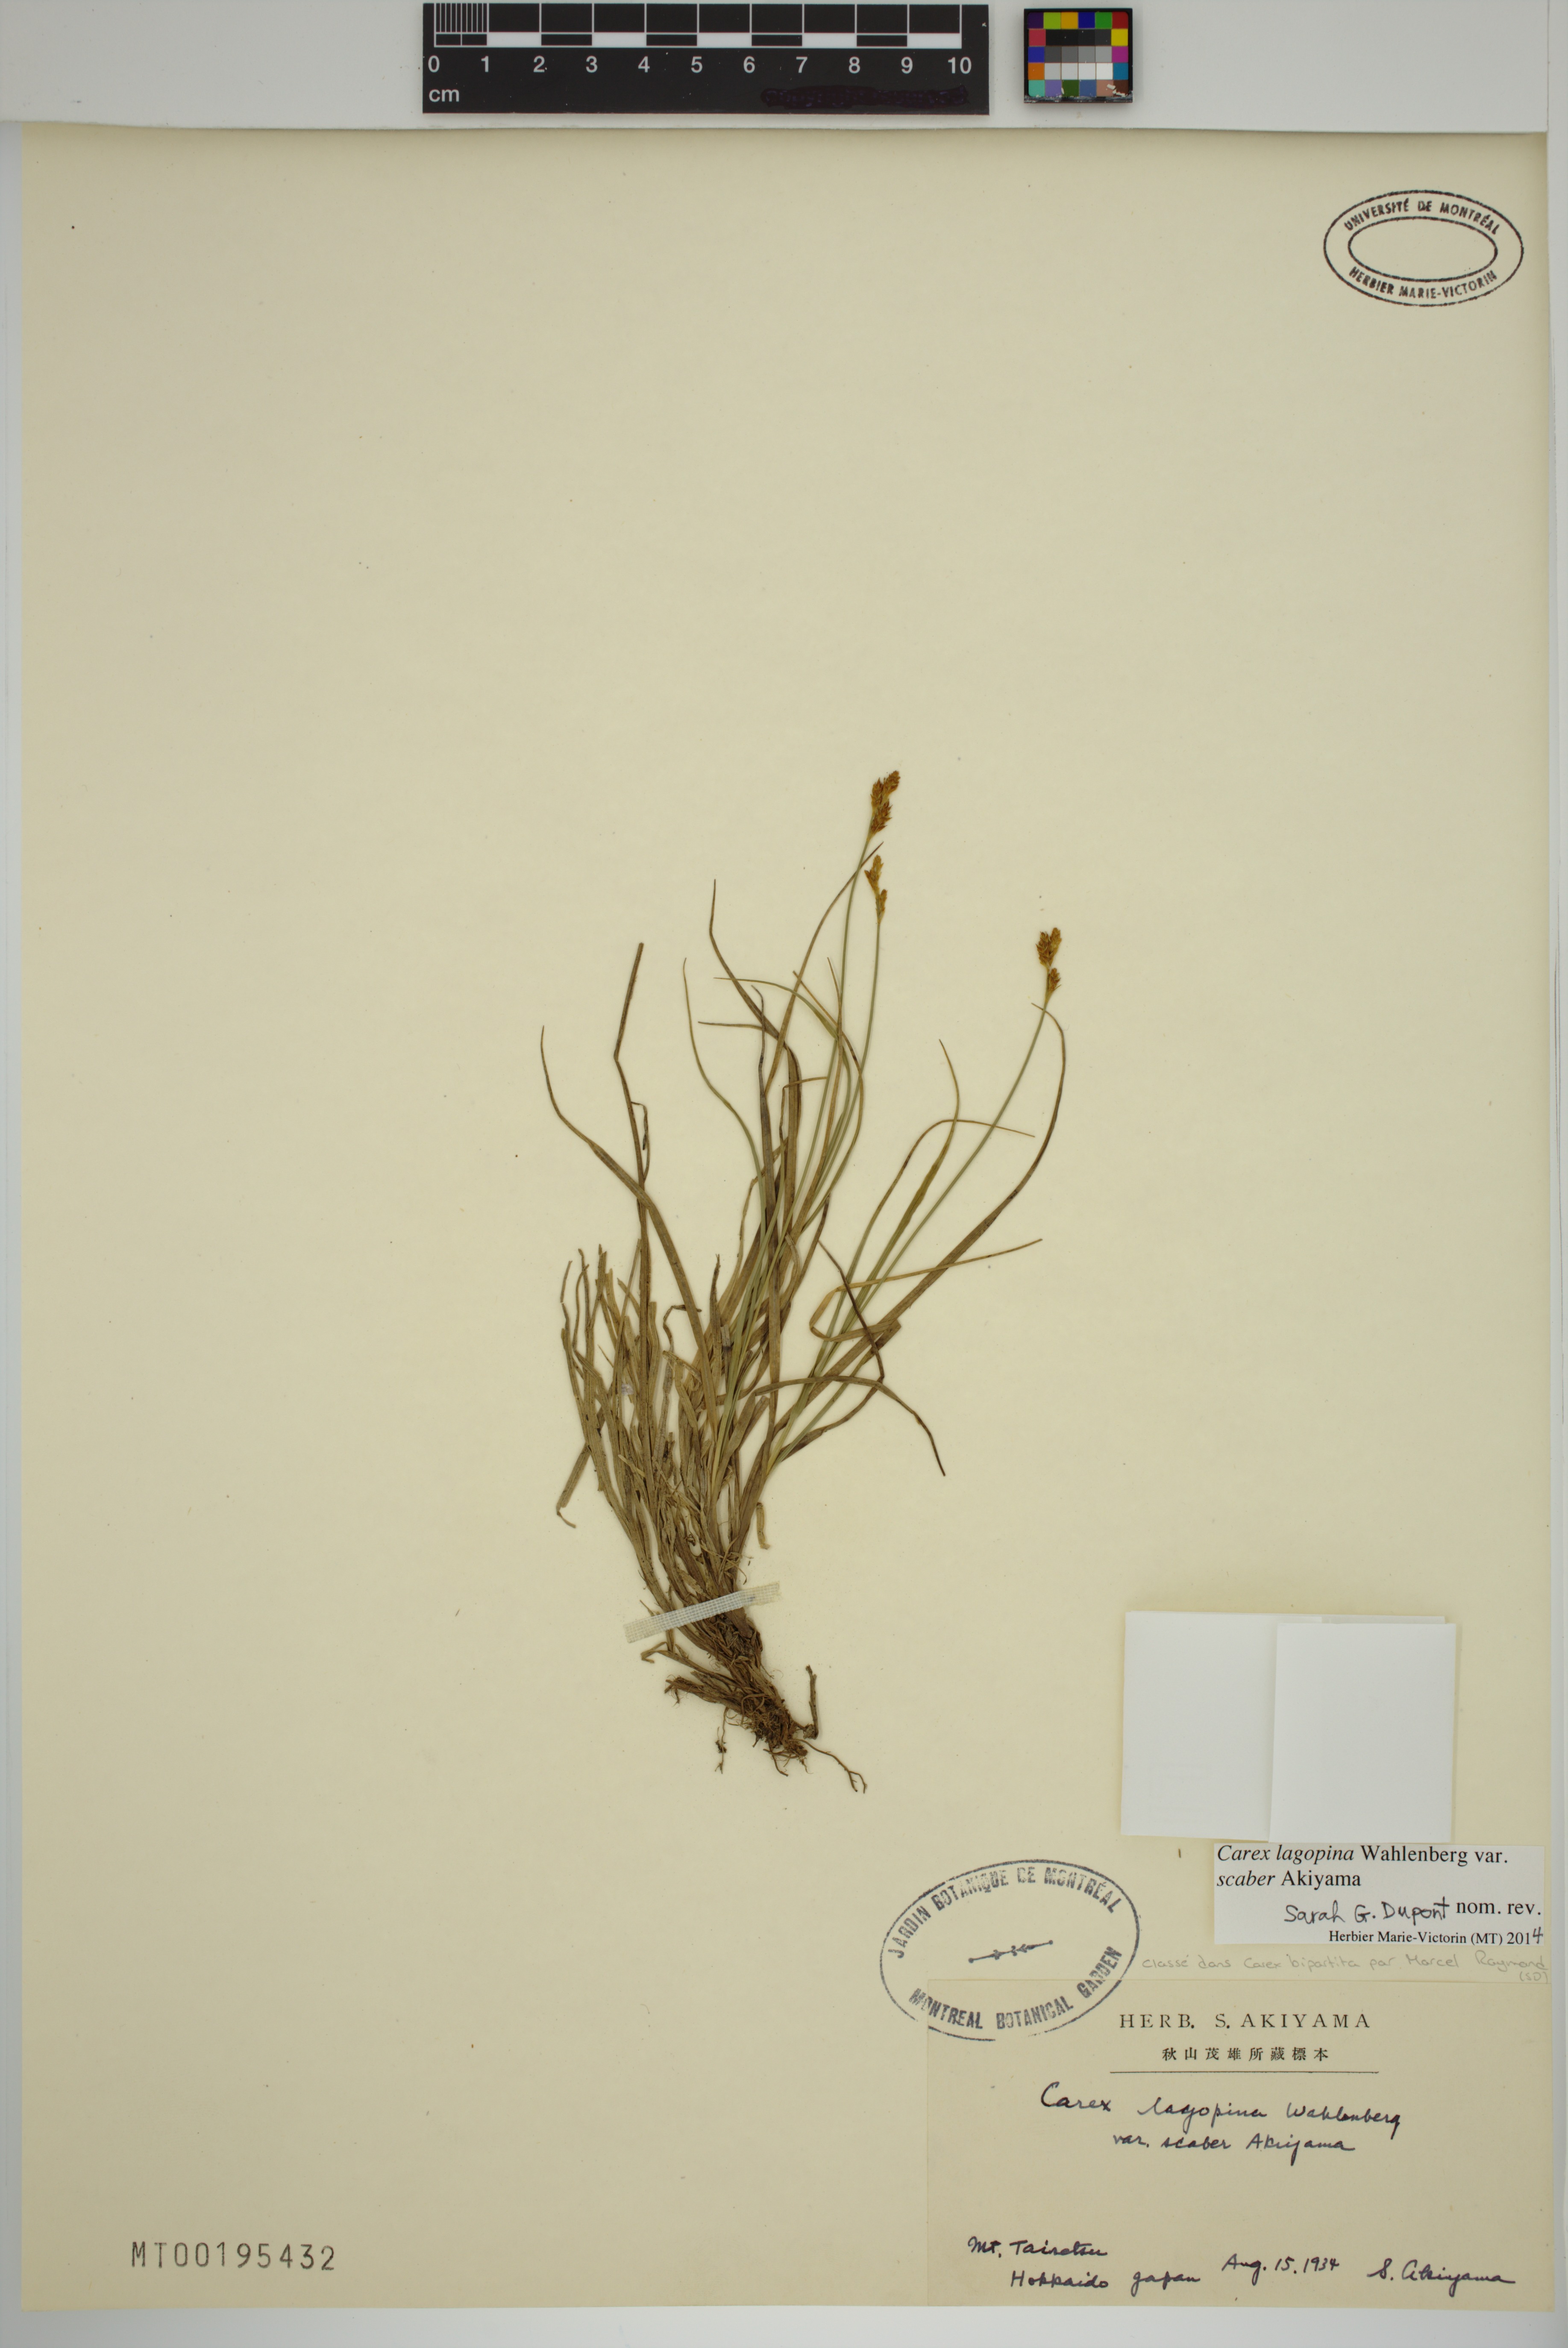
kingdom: Plantae
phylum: Tracheophyta
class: Liliopsida
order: Poales
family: Cyperaceae
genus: Carex
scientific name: Carex lachenalii
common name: Hare's-foot sedge
